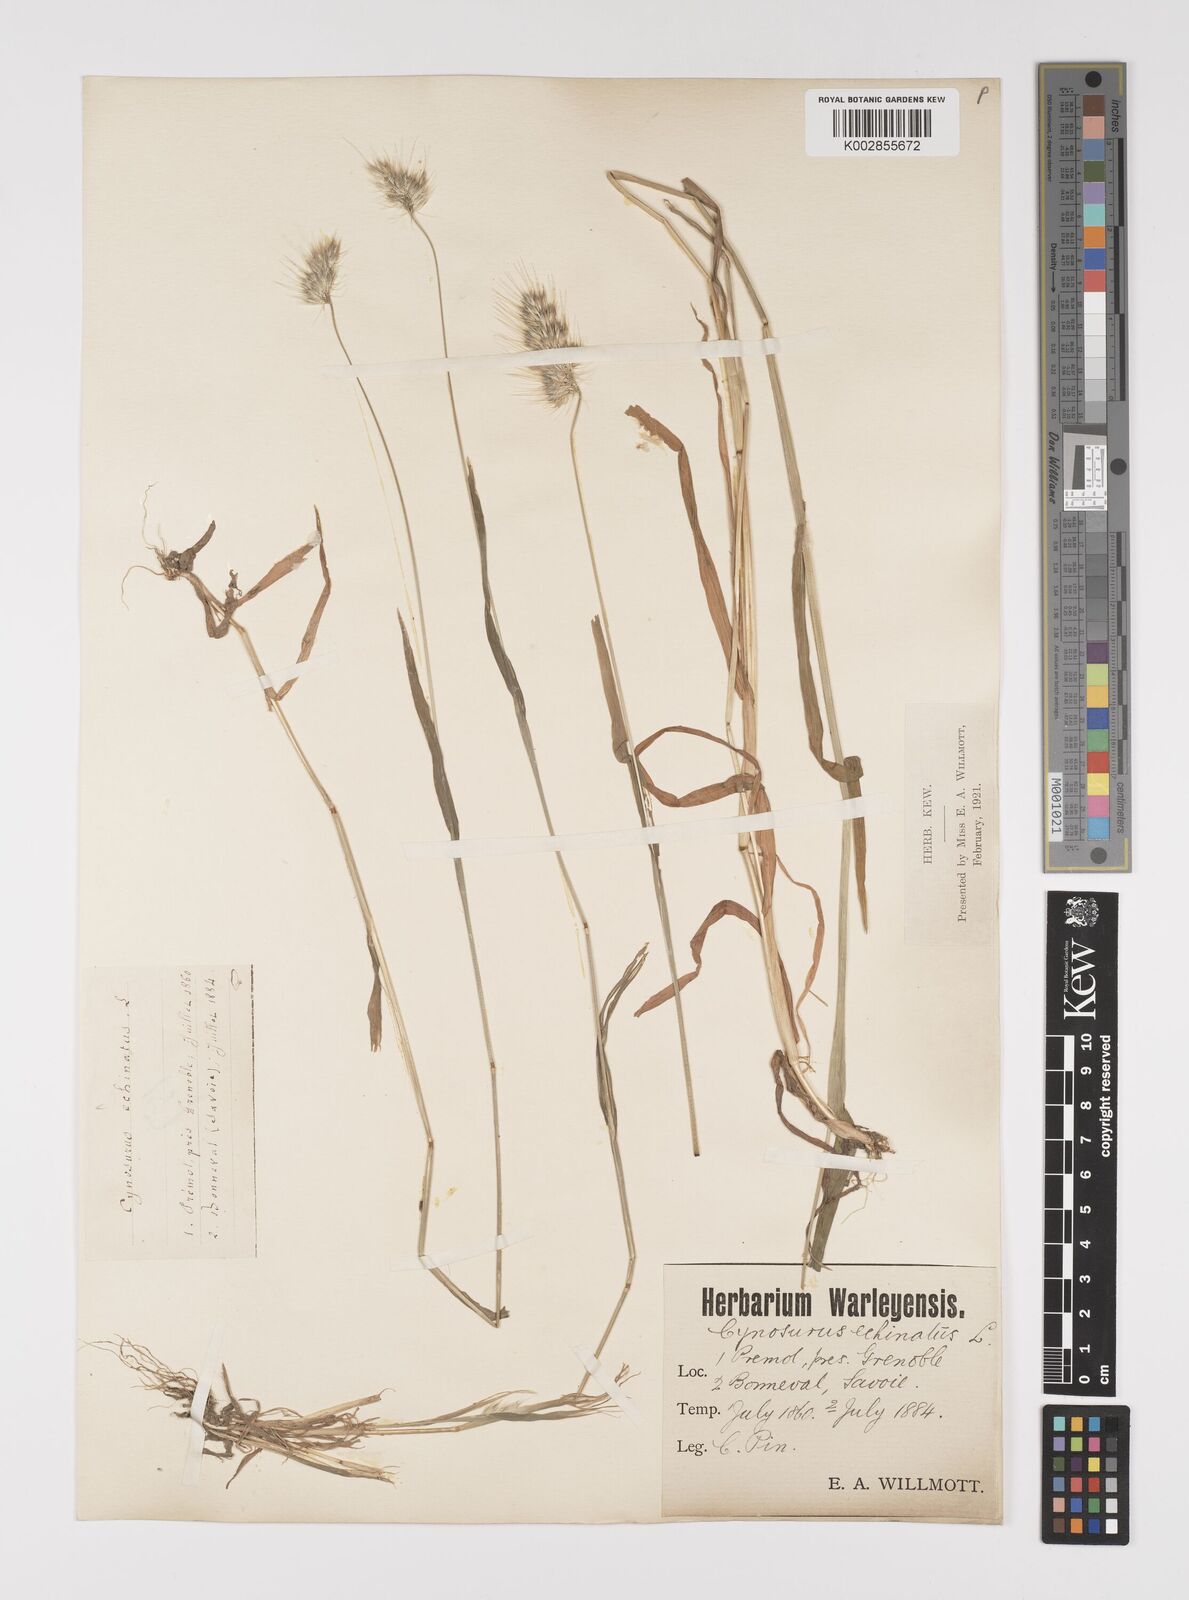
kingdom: Plantae
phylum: Tracheophyta
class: Liliopsida
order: Poales
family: Poaceae
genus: Cynosurus
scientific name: Cynosurus echinatus
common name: Rough dog's-tail
